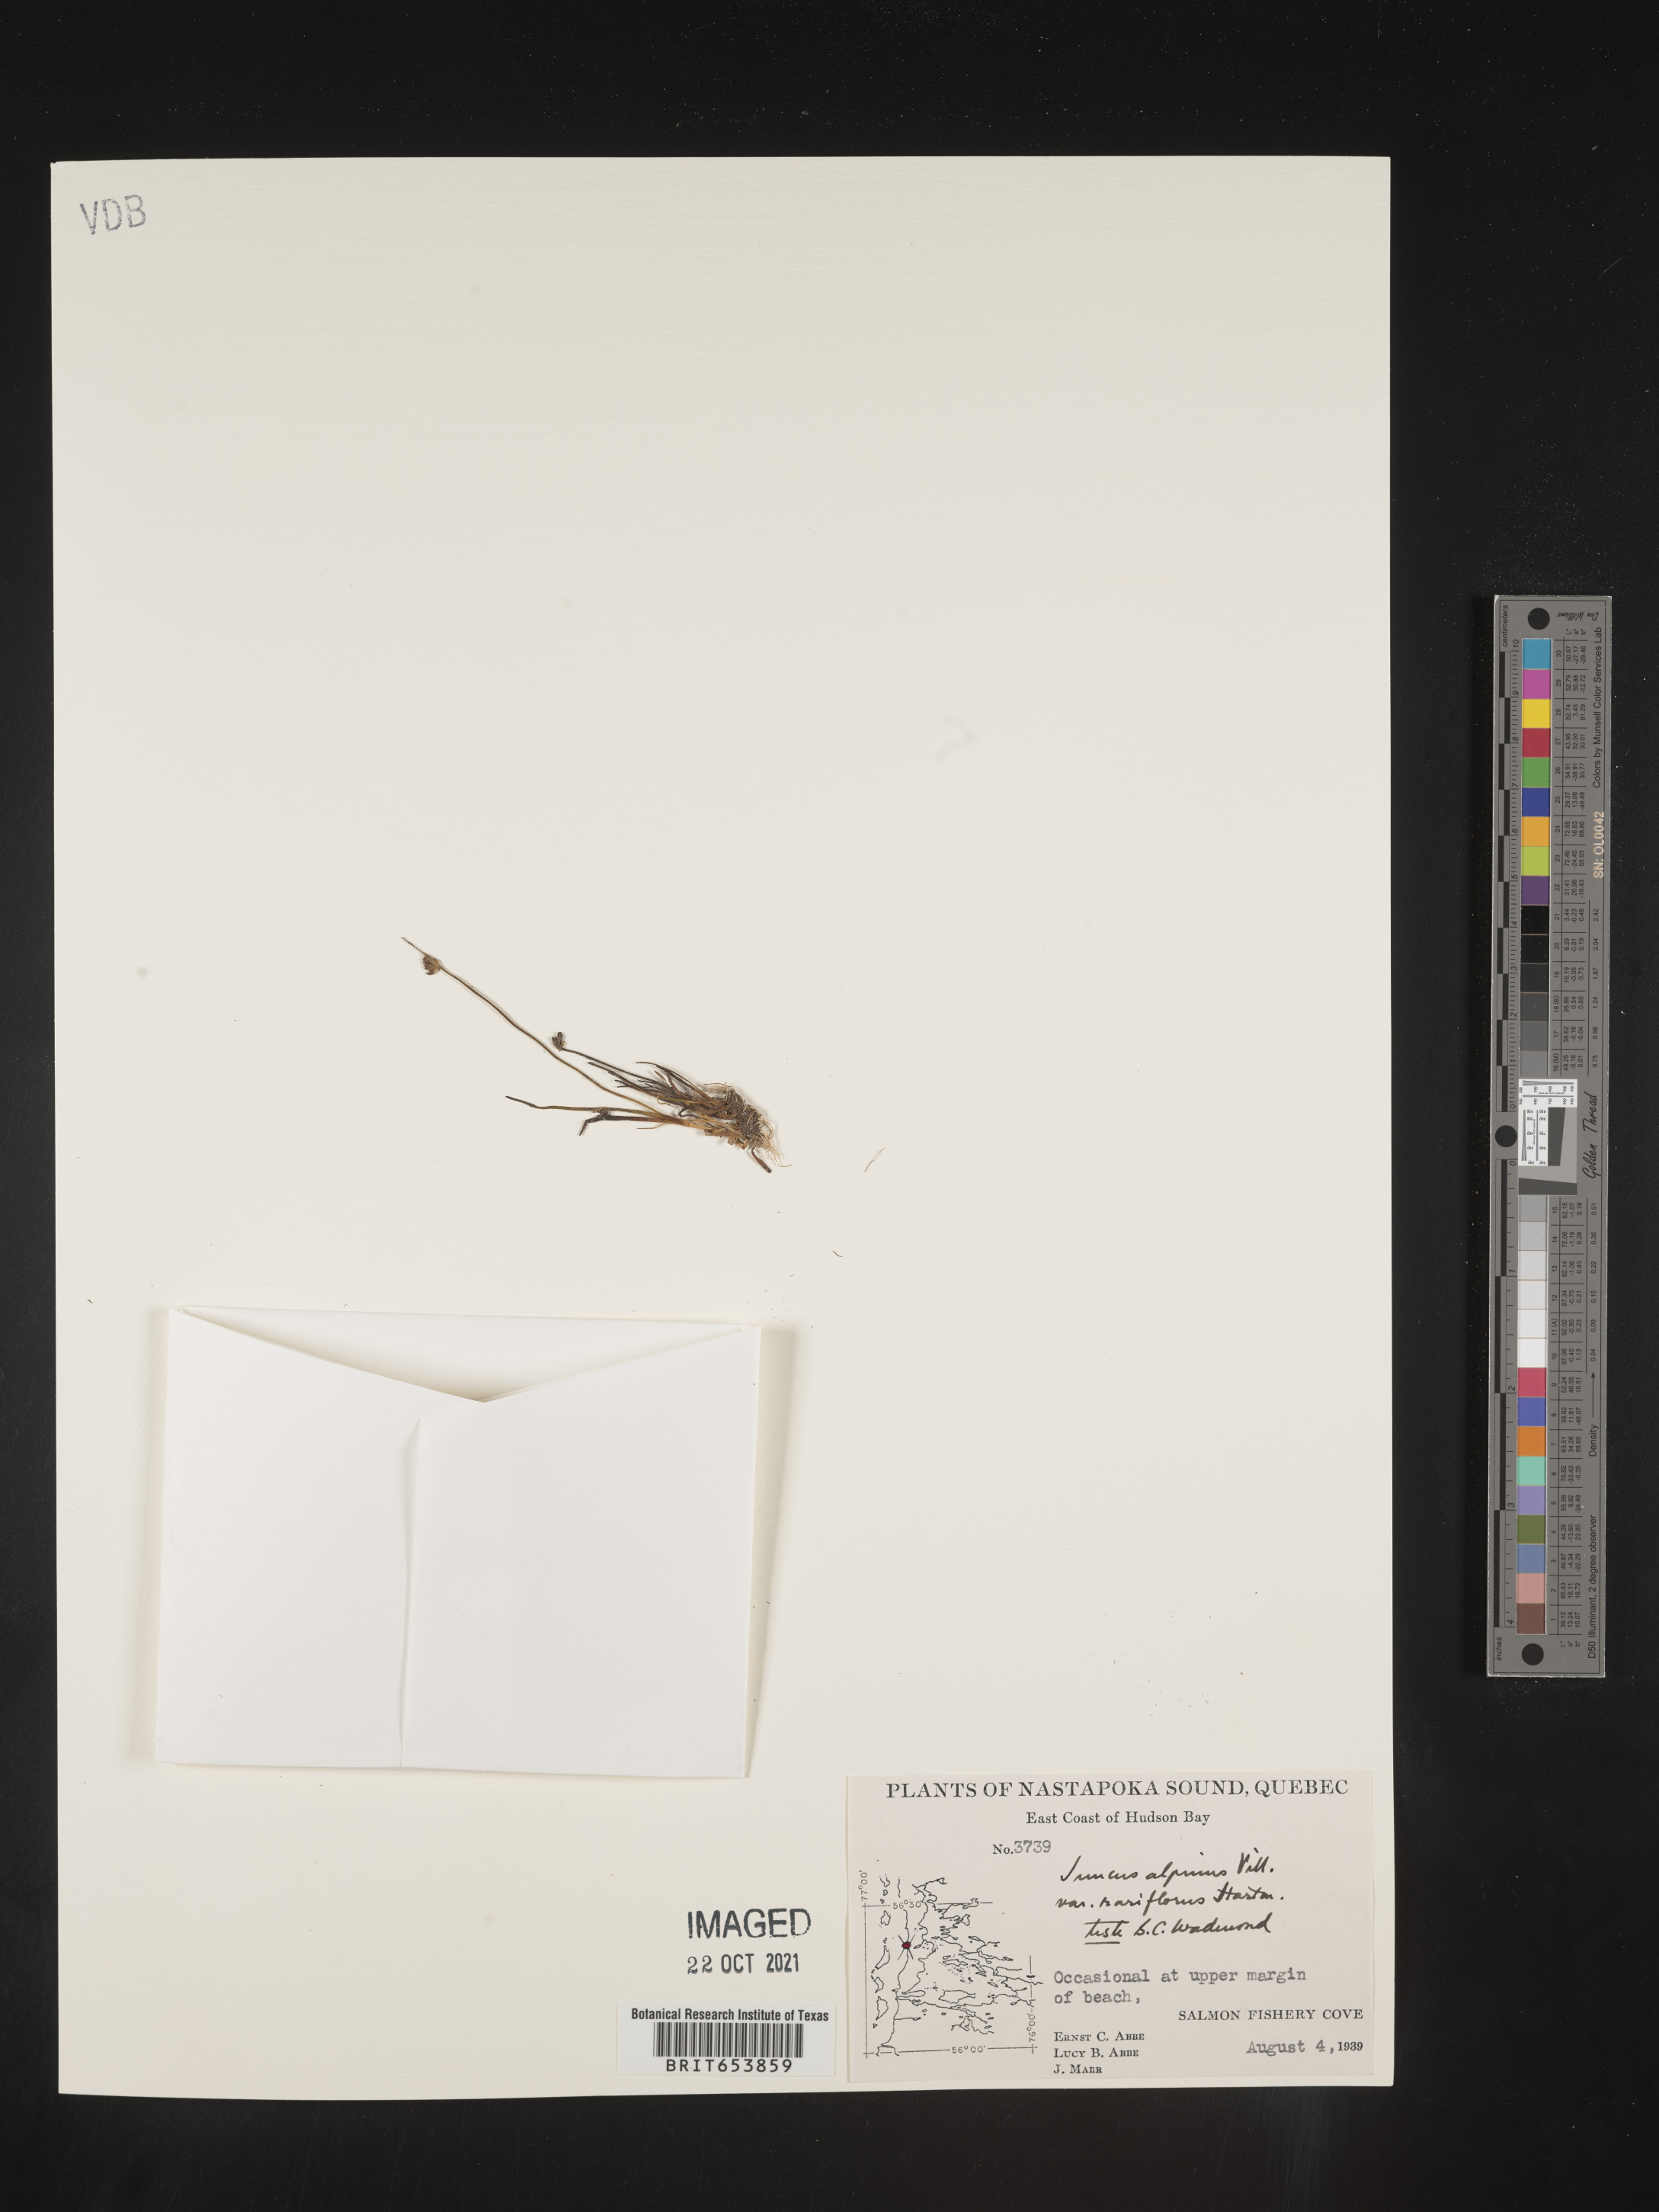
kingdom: Plantae
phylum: Tracheophyta
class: Liliopsida
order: Poales
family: Juncaceae
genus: Juncus
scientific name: Juncus alpinoarticulatus
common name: Alpine rush
